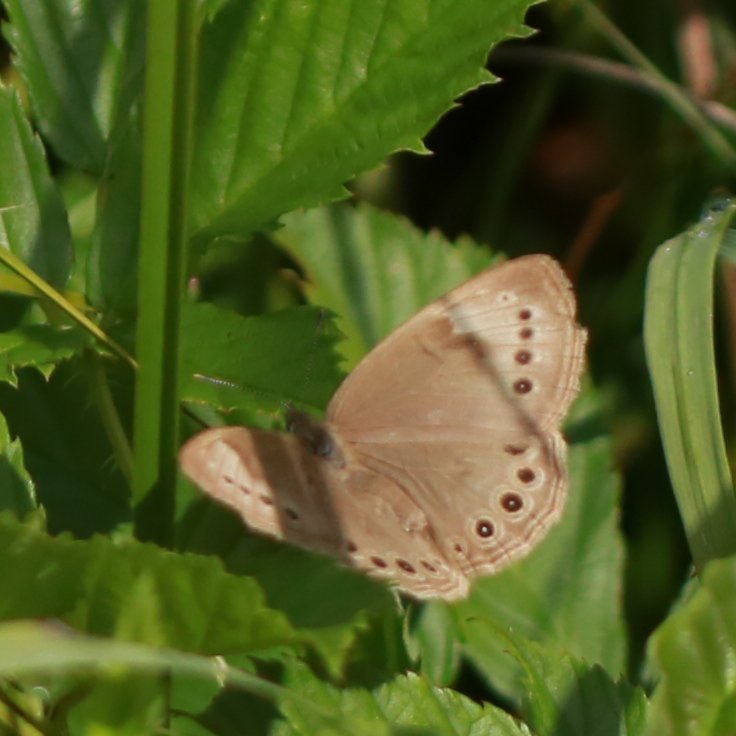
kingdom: Animalia
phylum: Arthropoda
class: Insecta
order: Lepidoptera
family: Nymphalidae
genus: Lethe
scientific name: Lethe eurydice
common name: Eyed Brown
